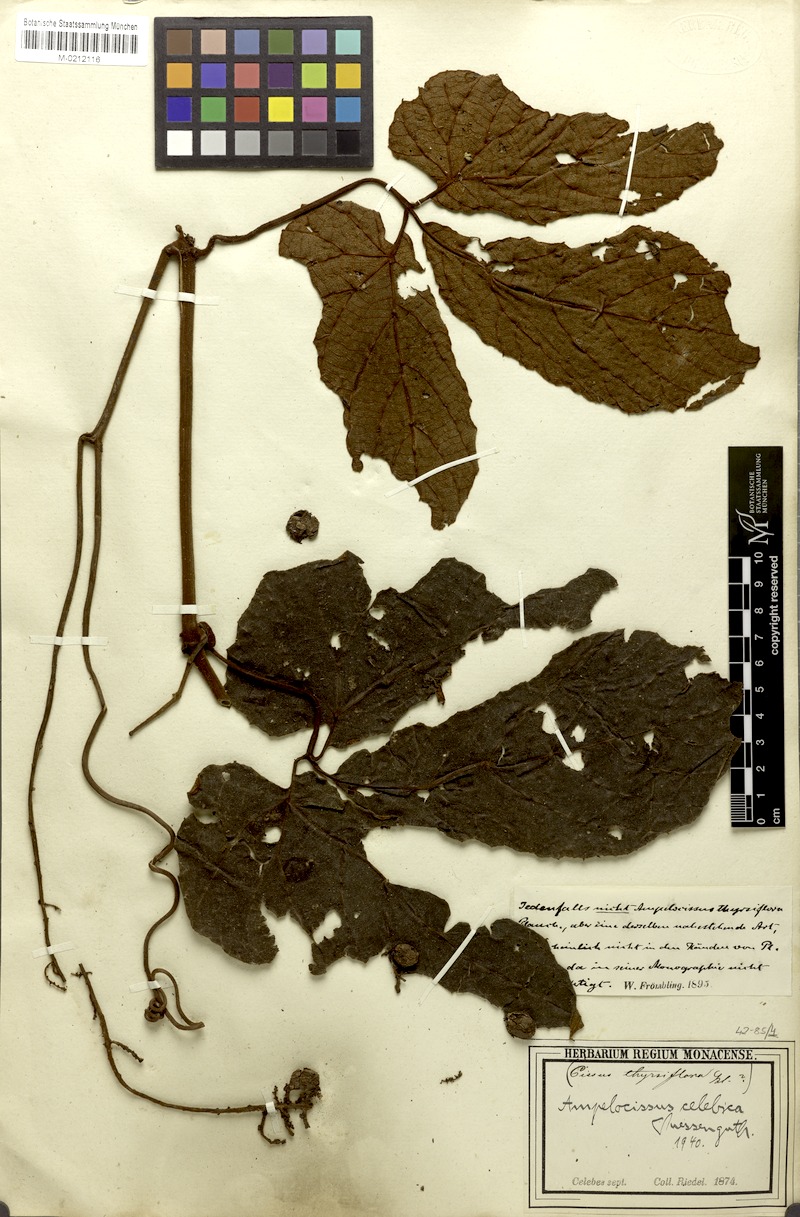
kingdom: Plantae
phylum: Tracheophyta
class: Magnoliopsida
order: Vitales
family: Vitaceae
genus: Ampelocissus
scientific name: Ampelocissus celebica
